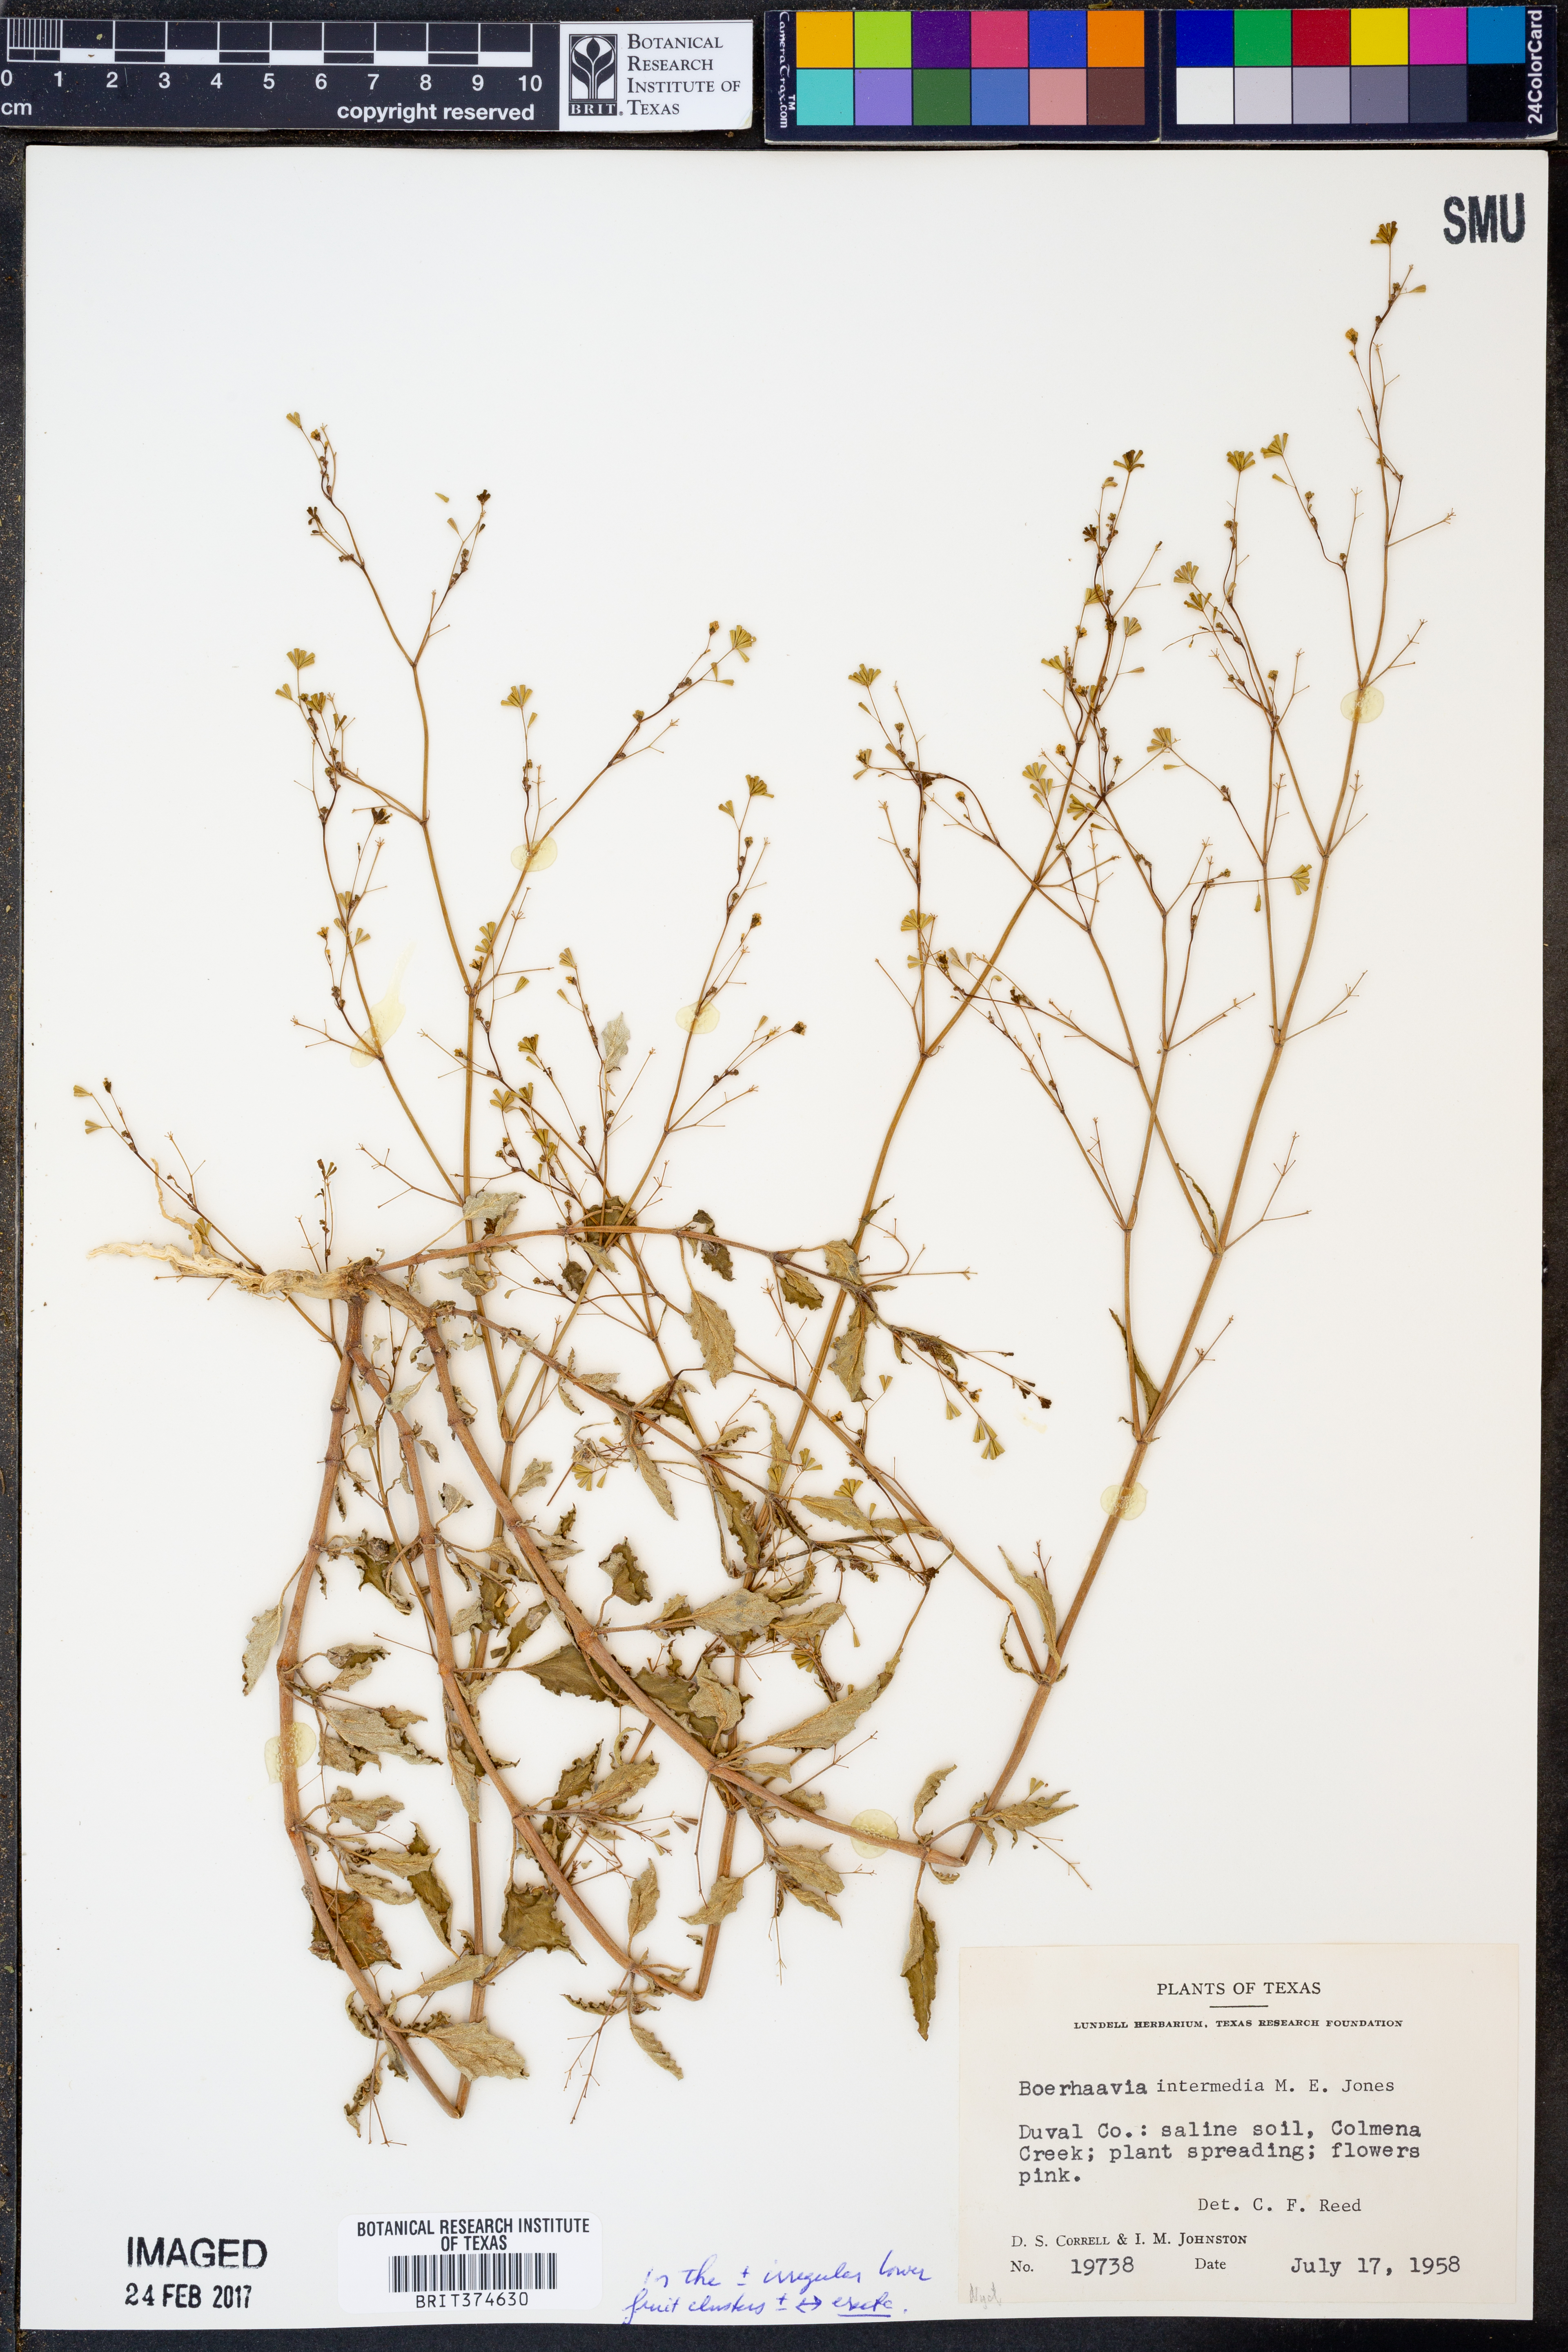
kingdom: Plantae
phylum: Tracheophyta
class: Magnoliopsida
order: Caryophyllales
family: Nyctaginaceae
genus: Boerhavia
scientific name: Boerhavia triquetra
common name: Creeping sticky-stem
